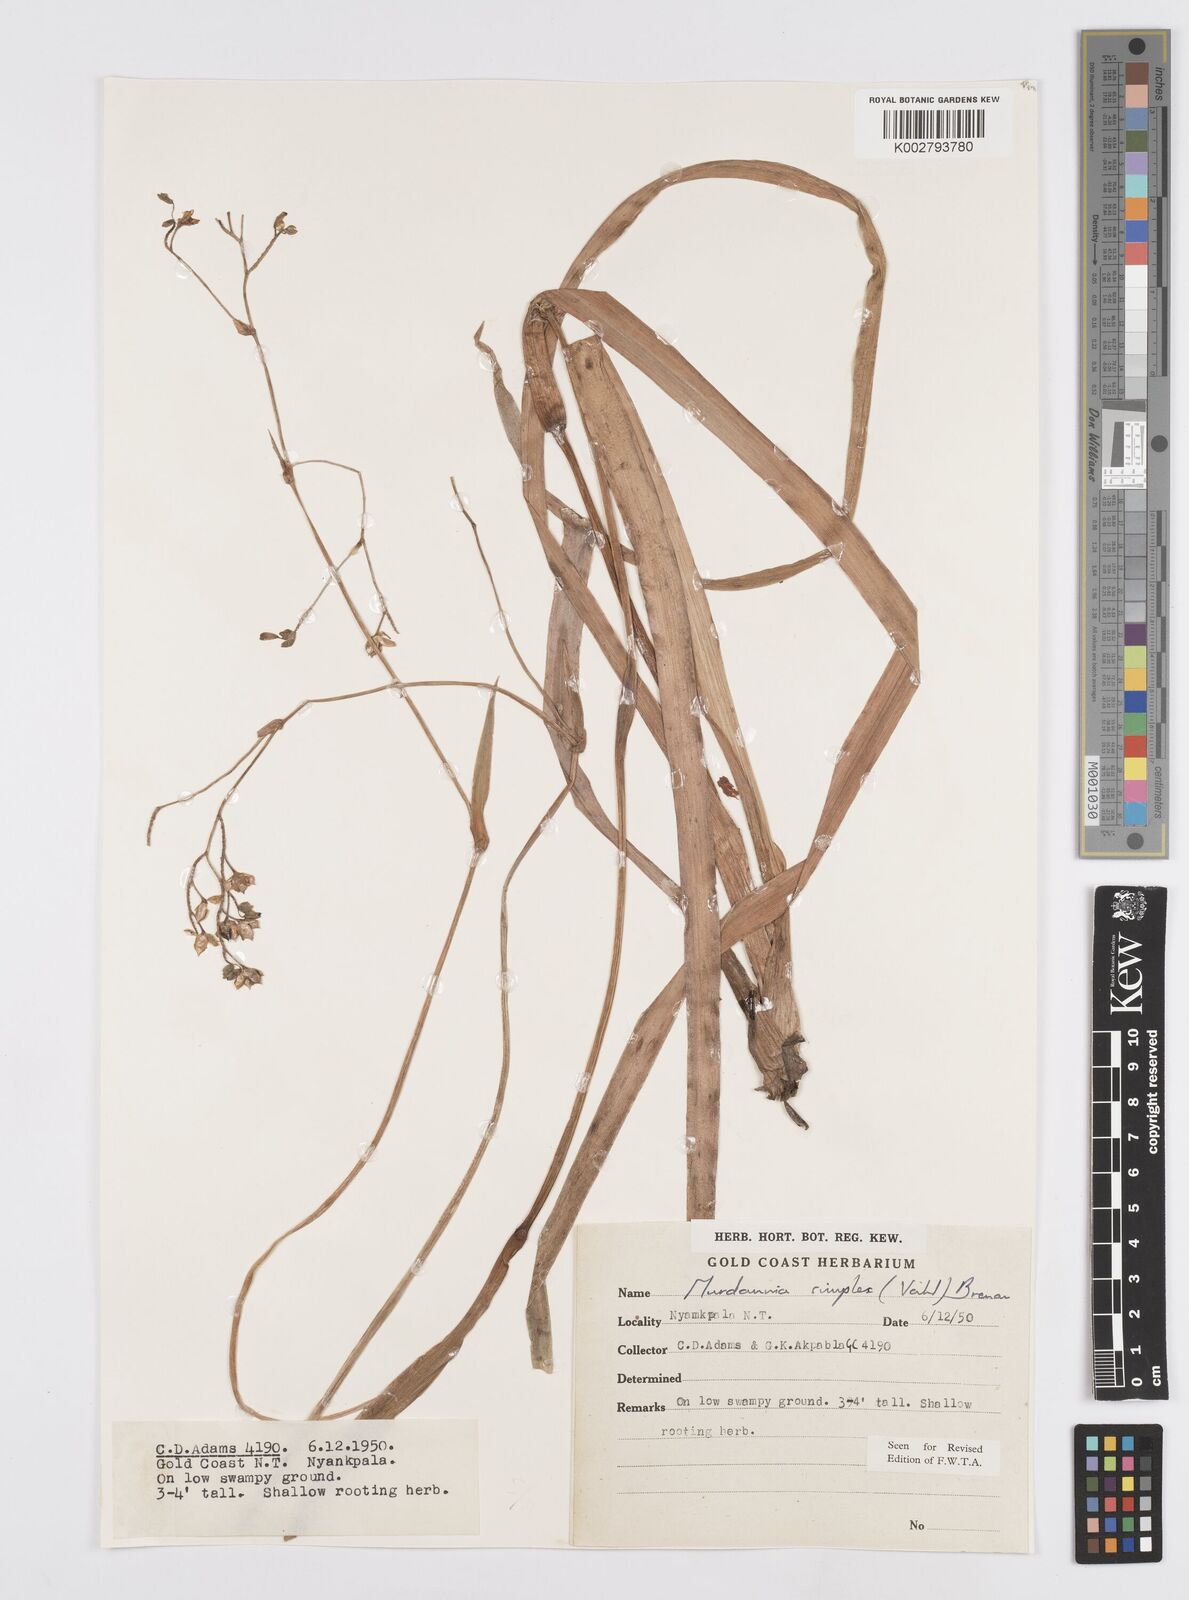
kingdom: Plantae
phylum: Tracheophyta
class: Liliopsida
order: Commelinales
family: Commelinaceae
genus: Murdannia
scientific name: Murdannia simplex
